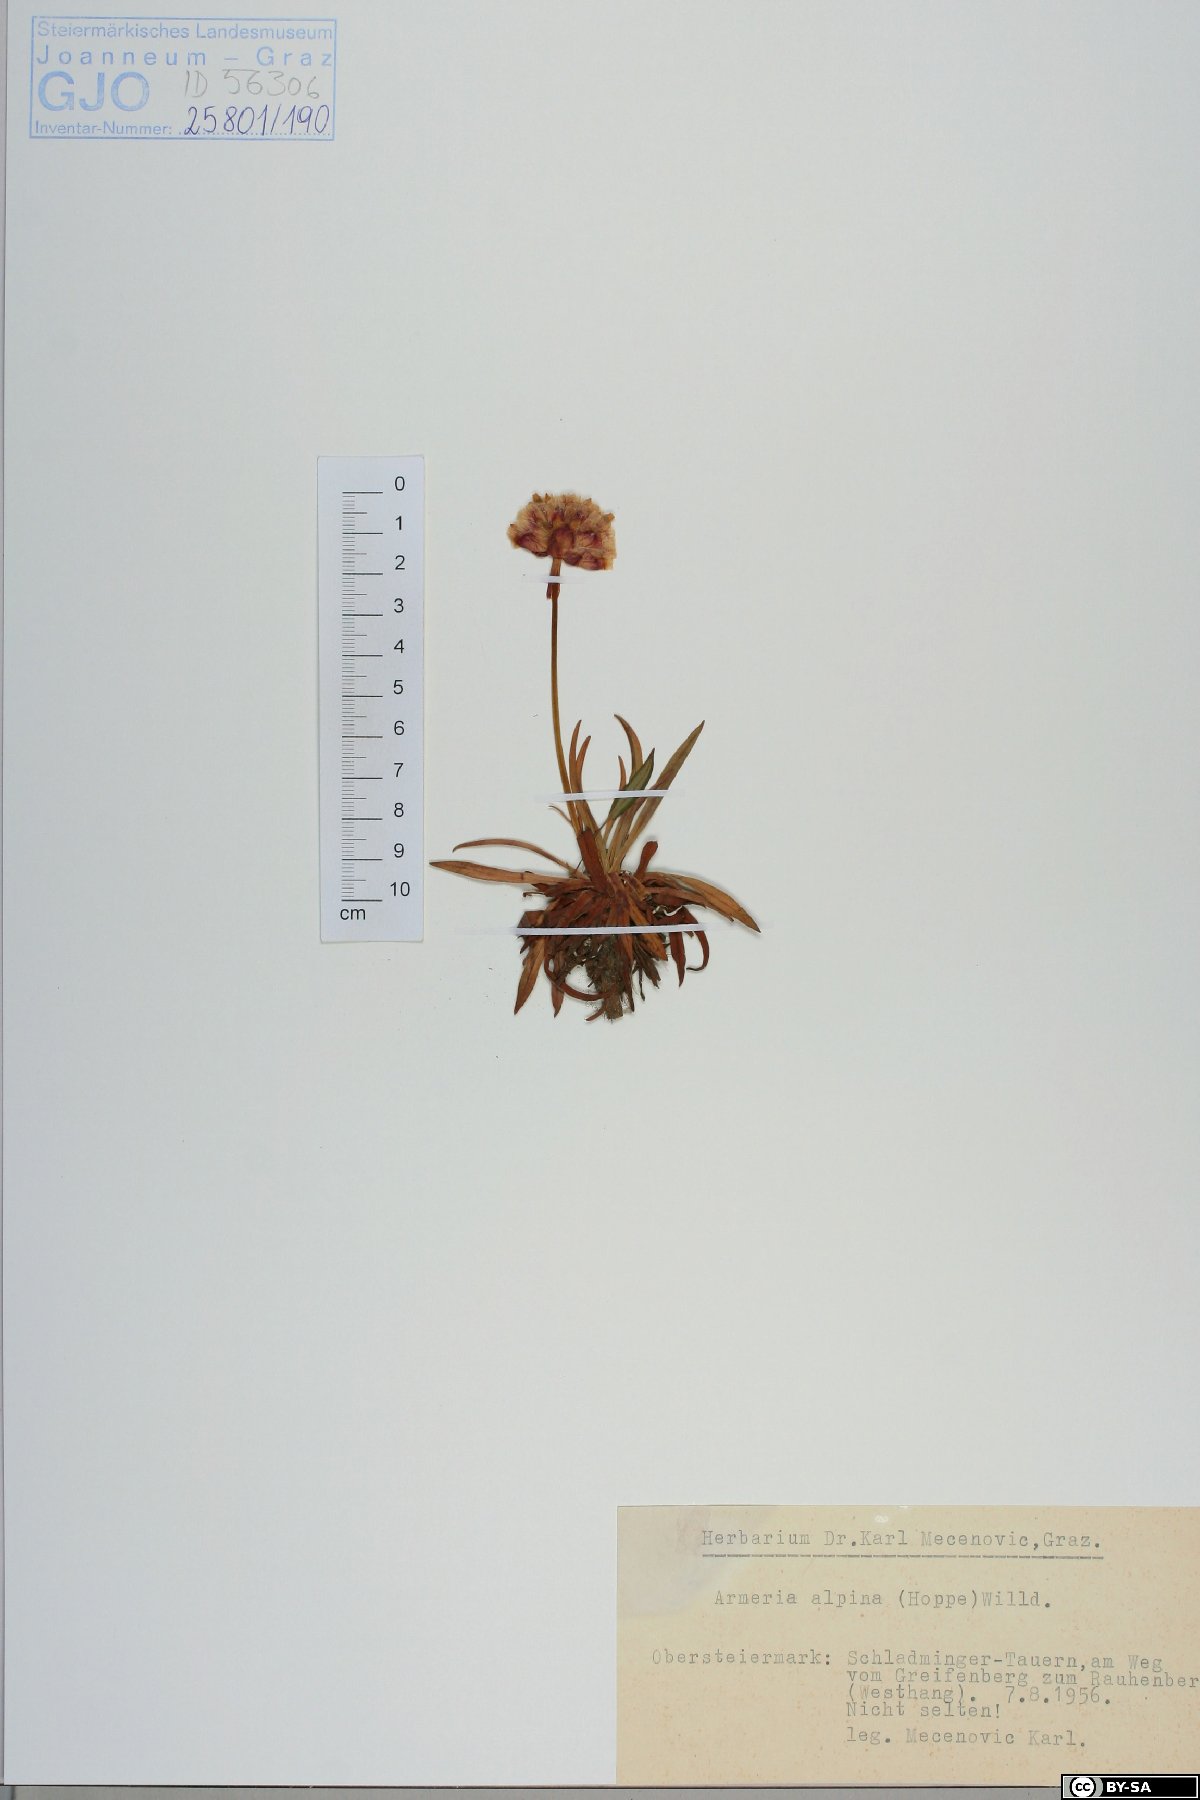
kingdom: Plantae
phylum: Tracheophyta
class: Magnoliopsida
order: Caryophyllales
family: Plumbaginaceae
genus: Armeria
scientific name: Armeria alpina
